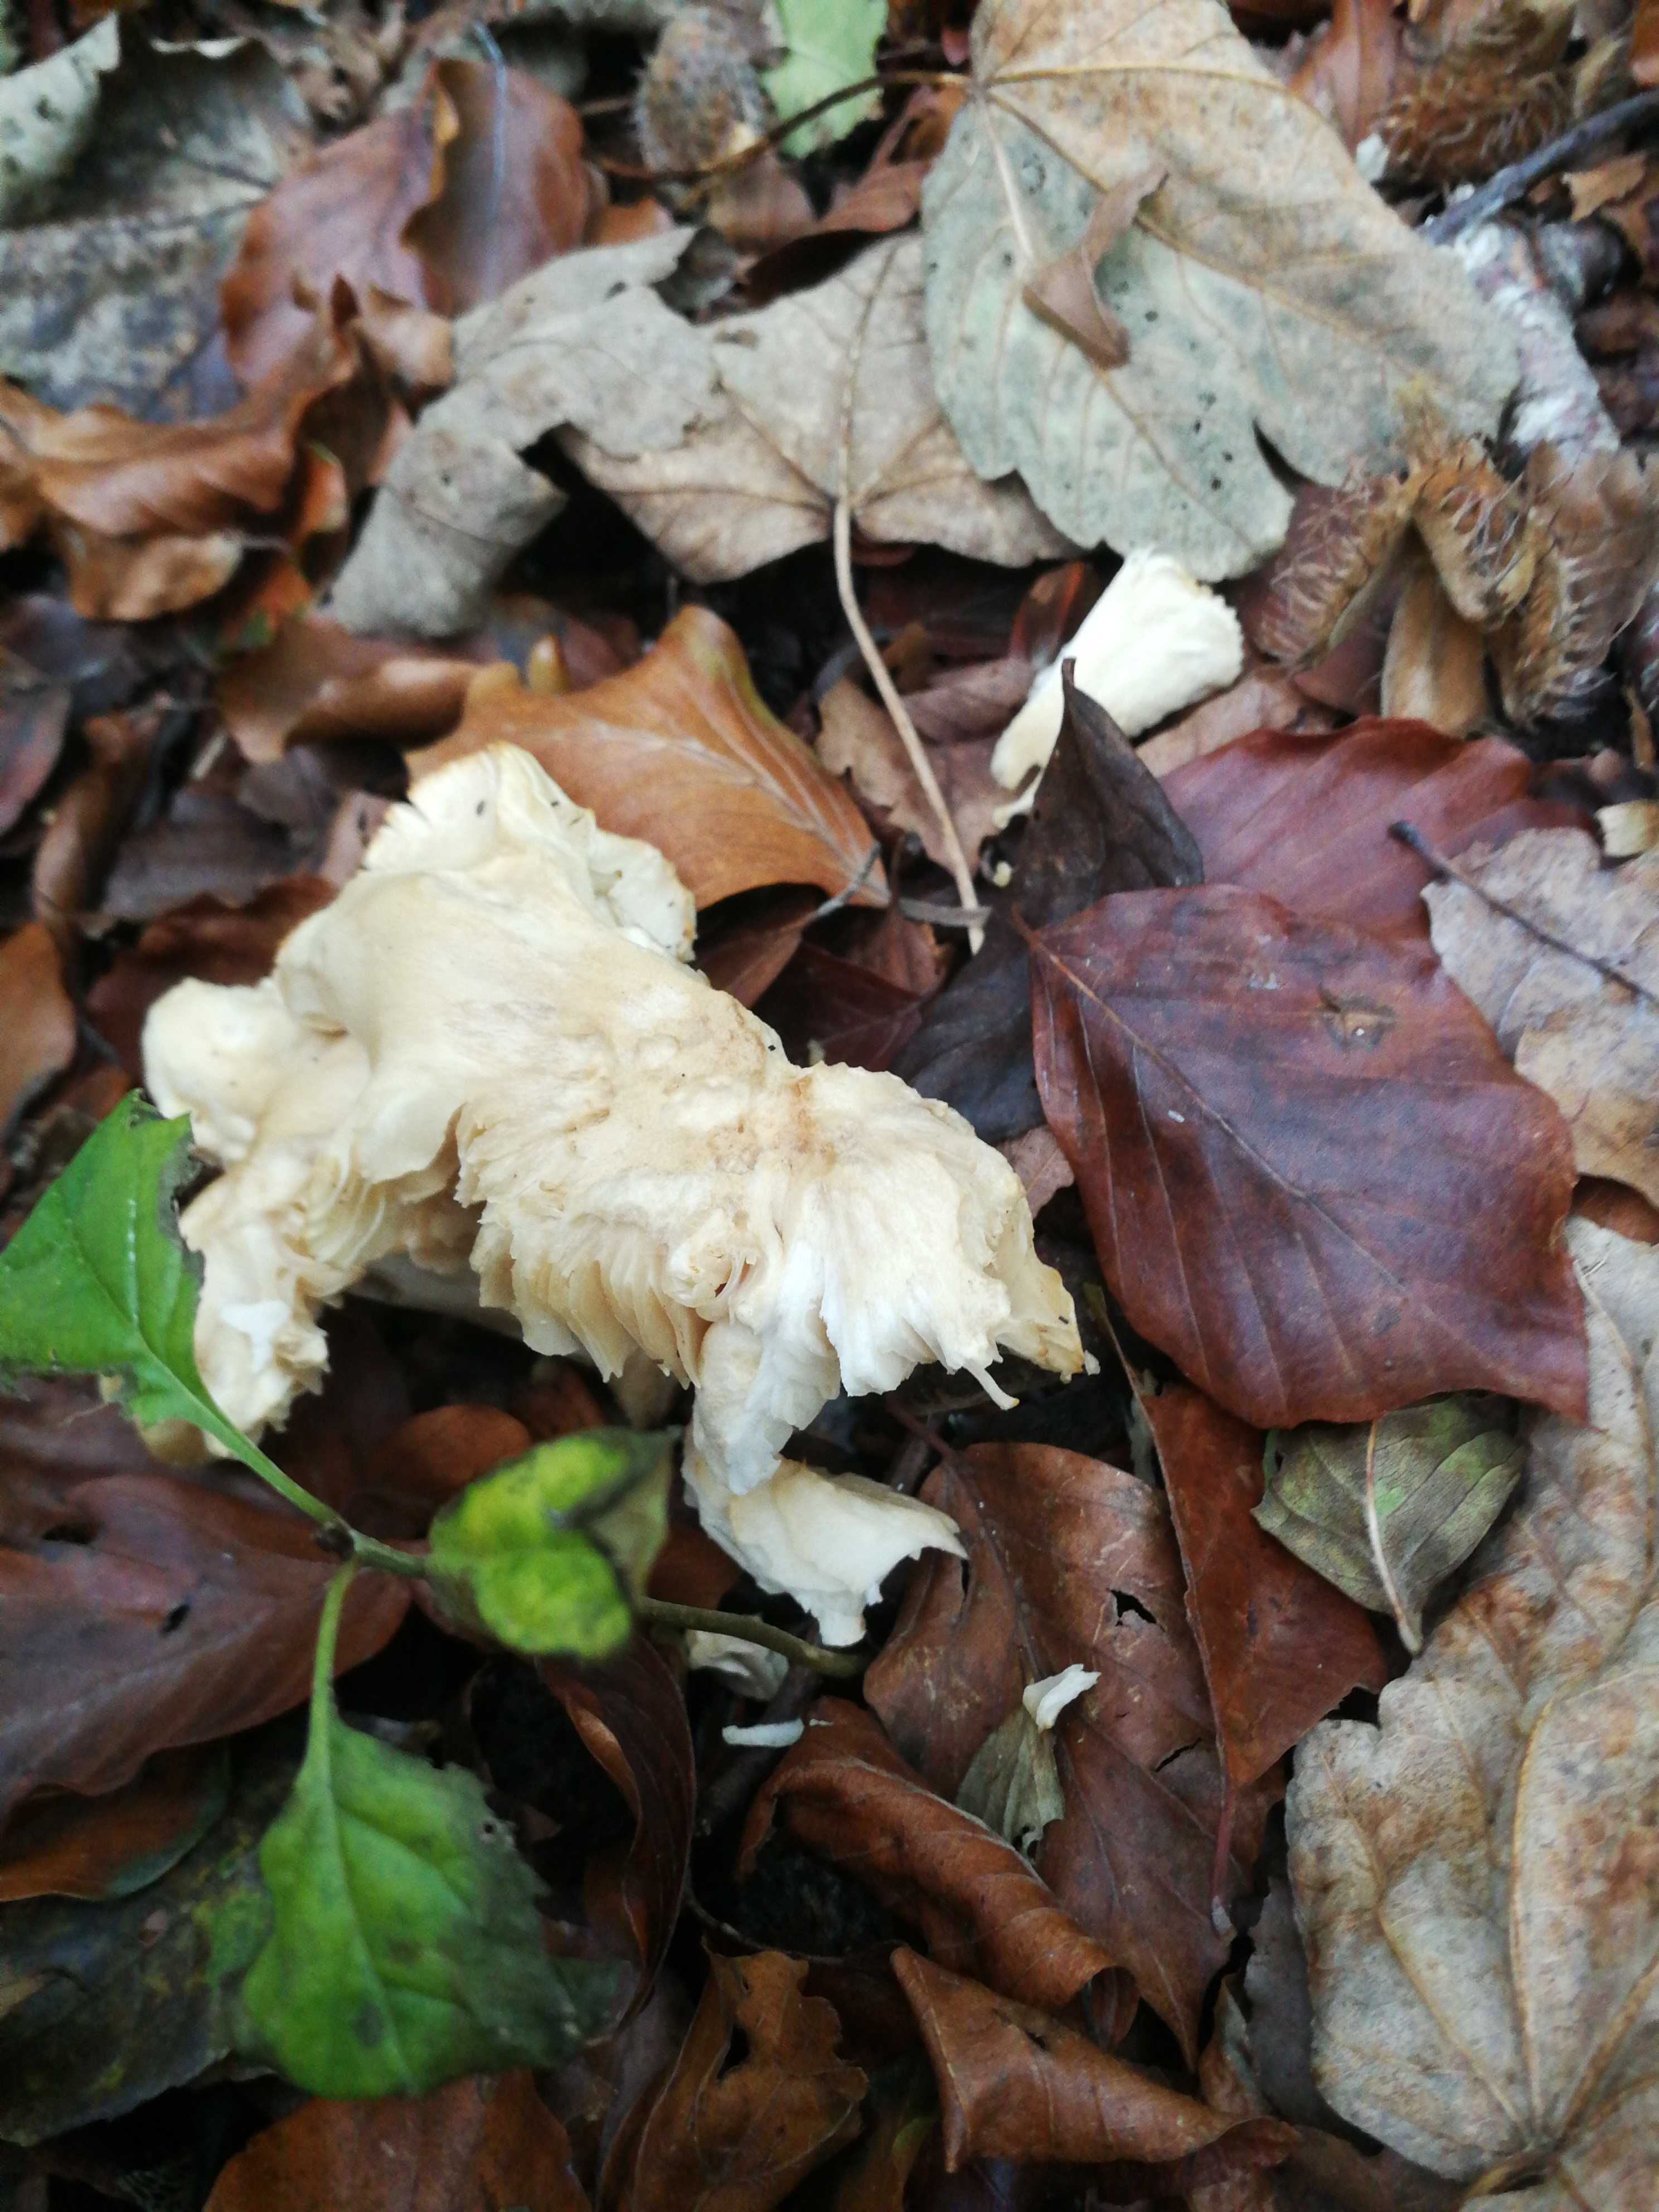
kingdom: Fungi
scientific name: Fungi
